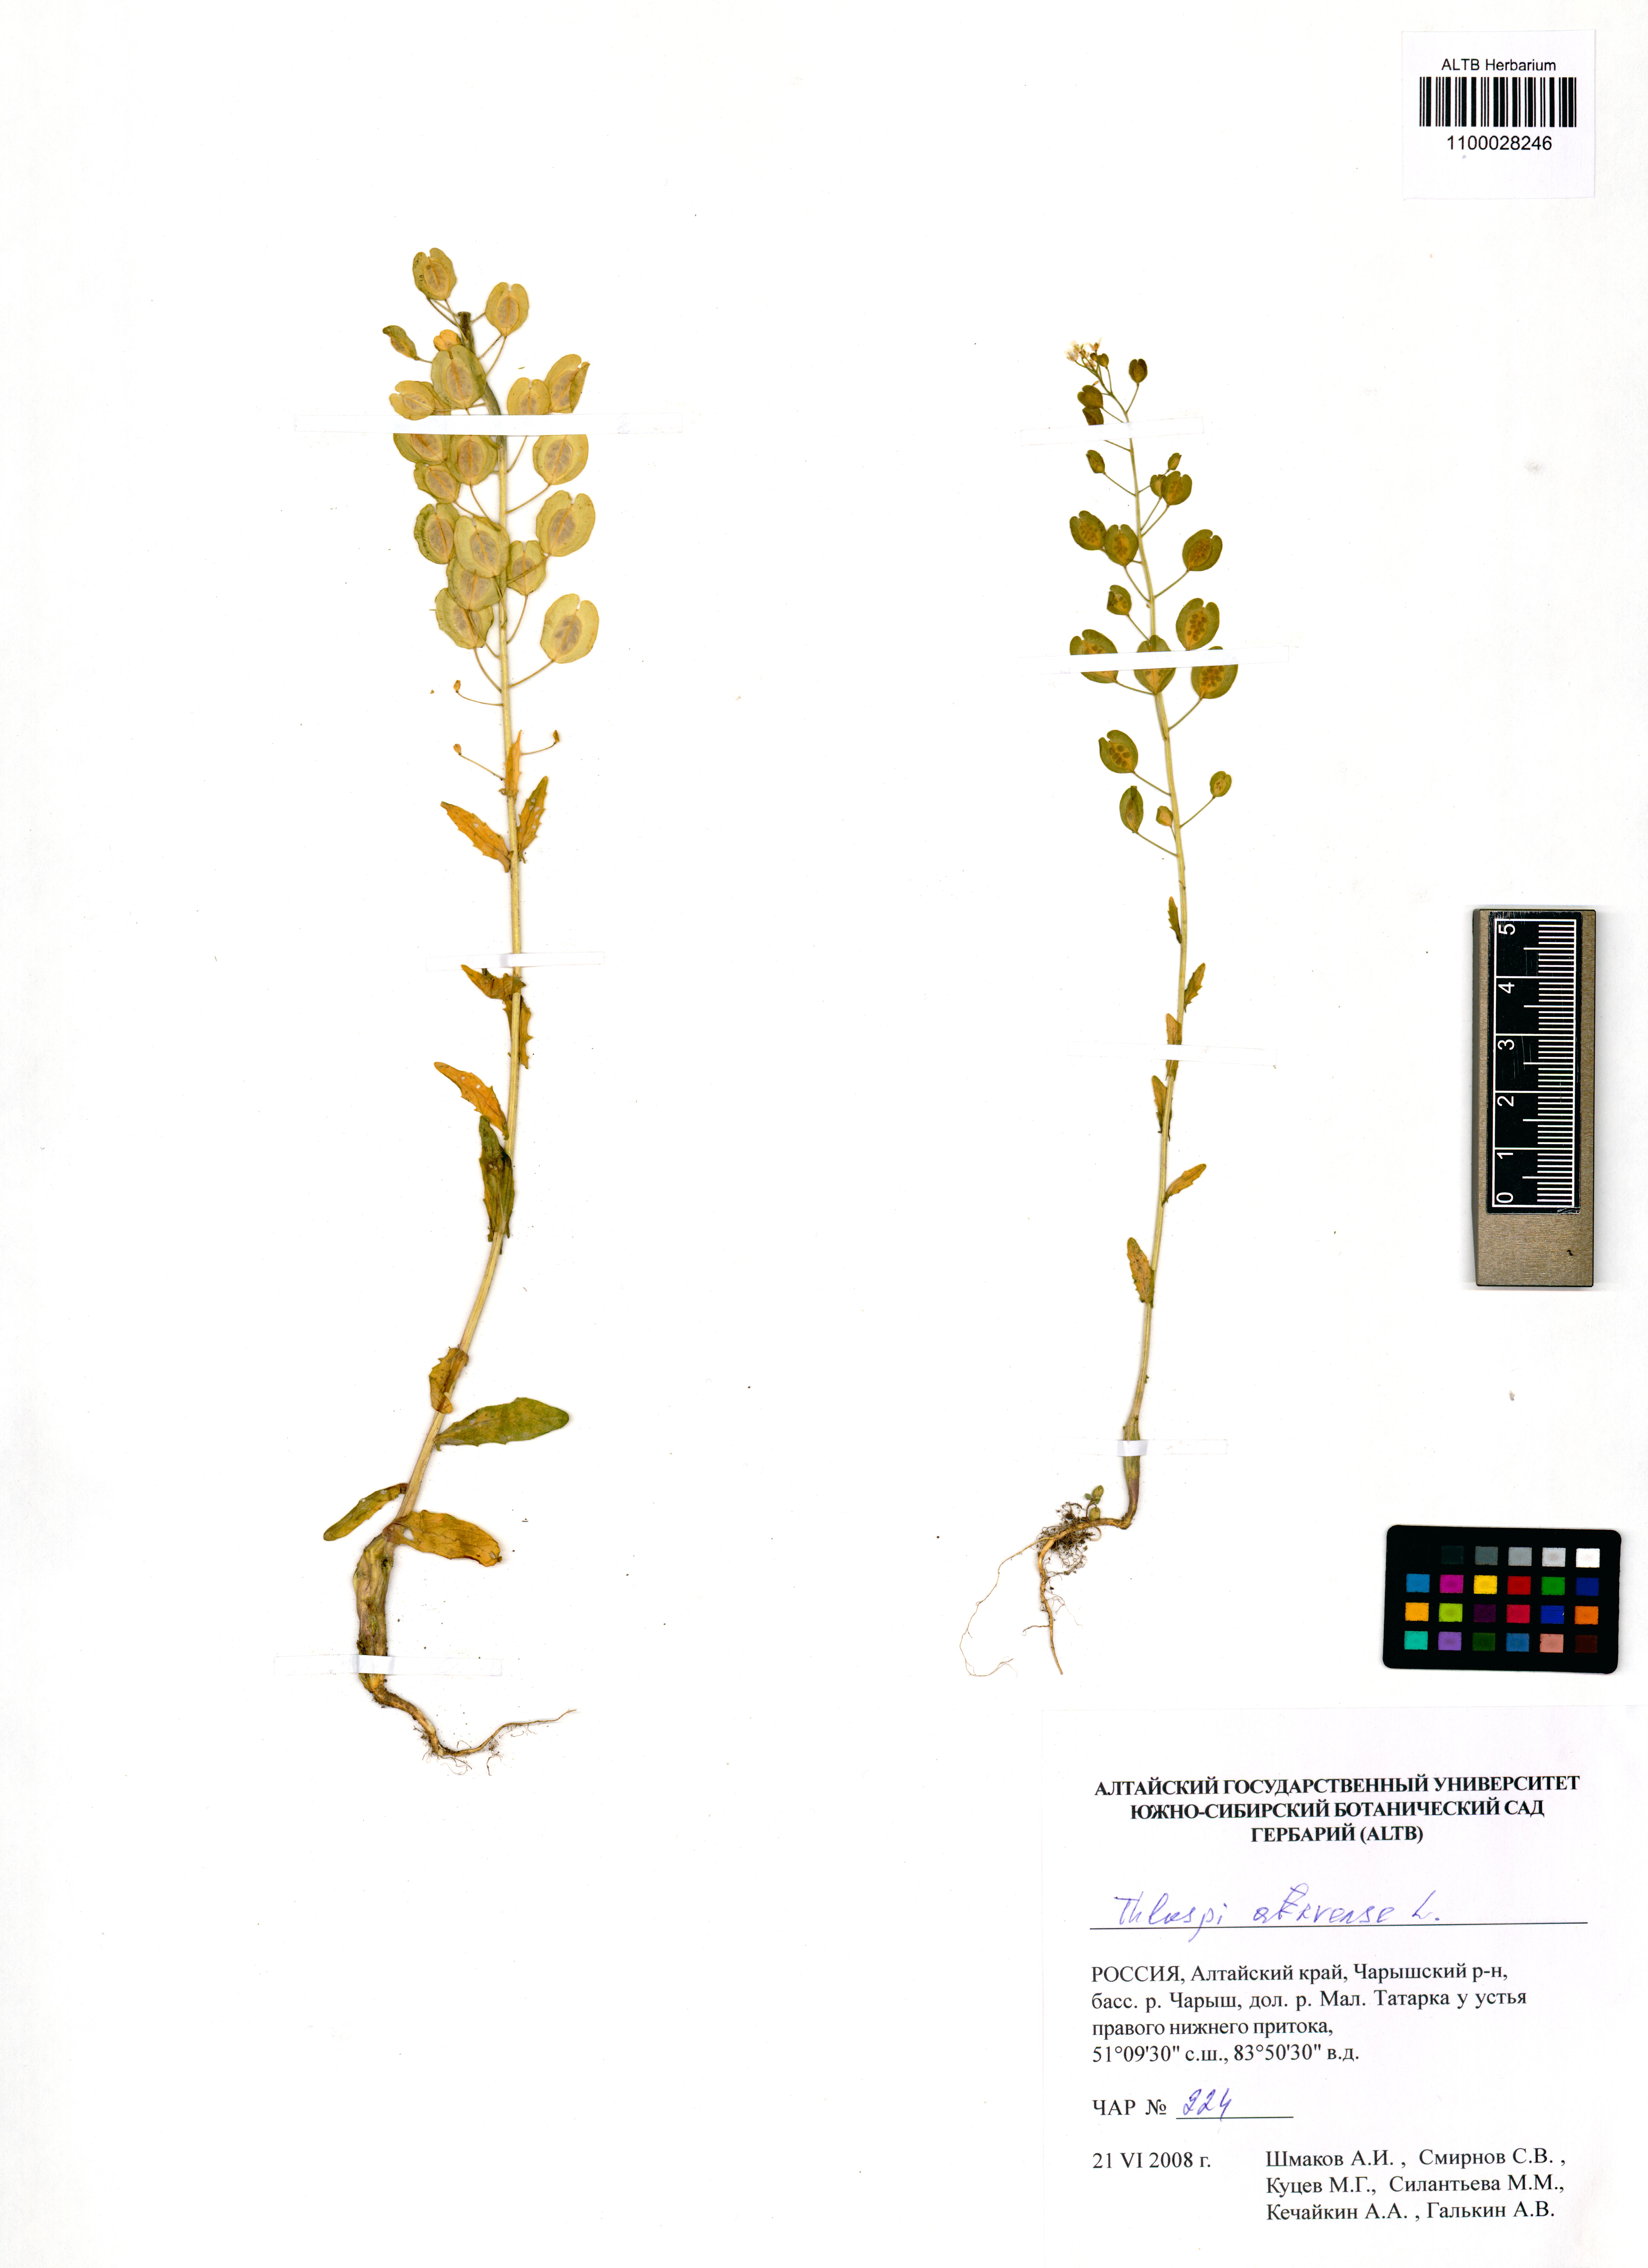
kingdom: Plantae
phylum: Tracheophyta
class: Magnoliopsida
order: Brassicales
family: Brassicaceae
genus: Thlaspi
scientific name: Thlaspi arvense
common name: Field pennycress
